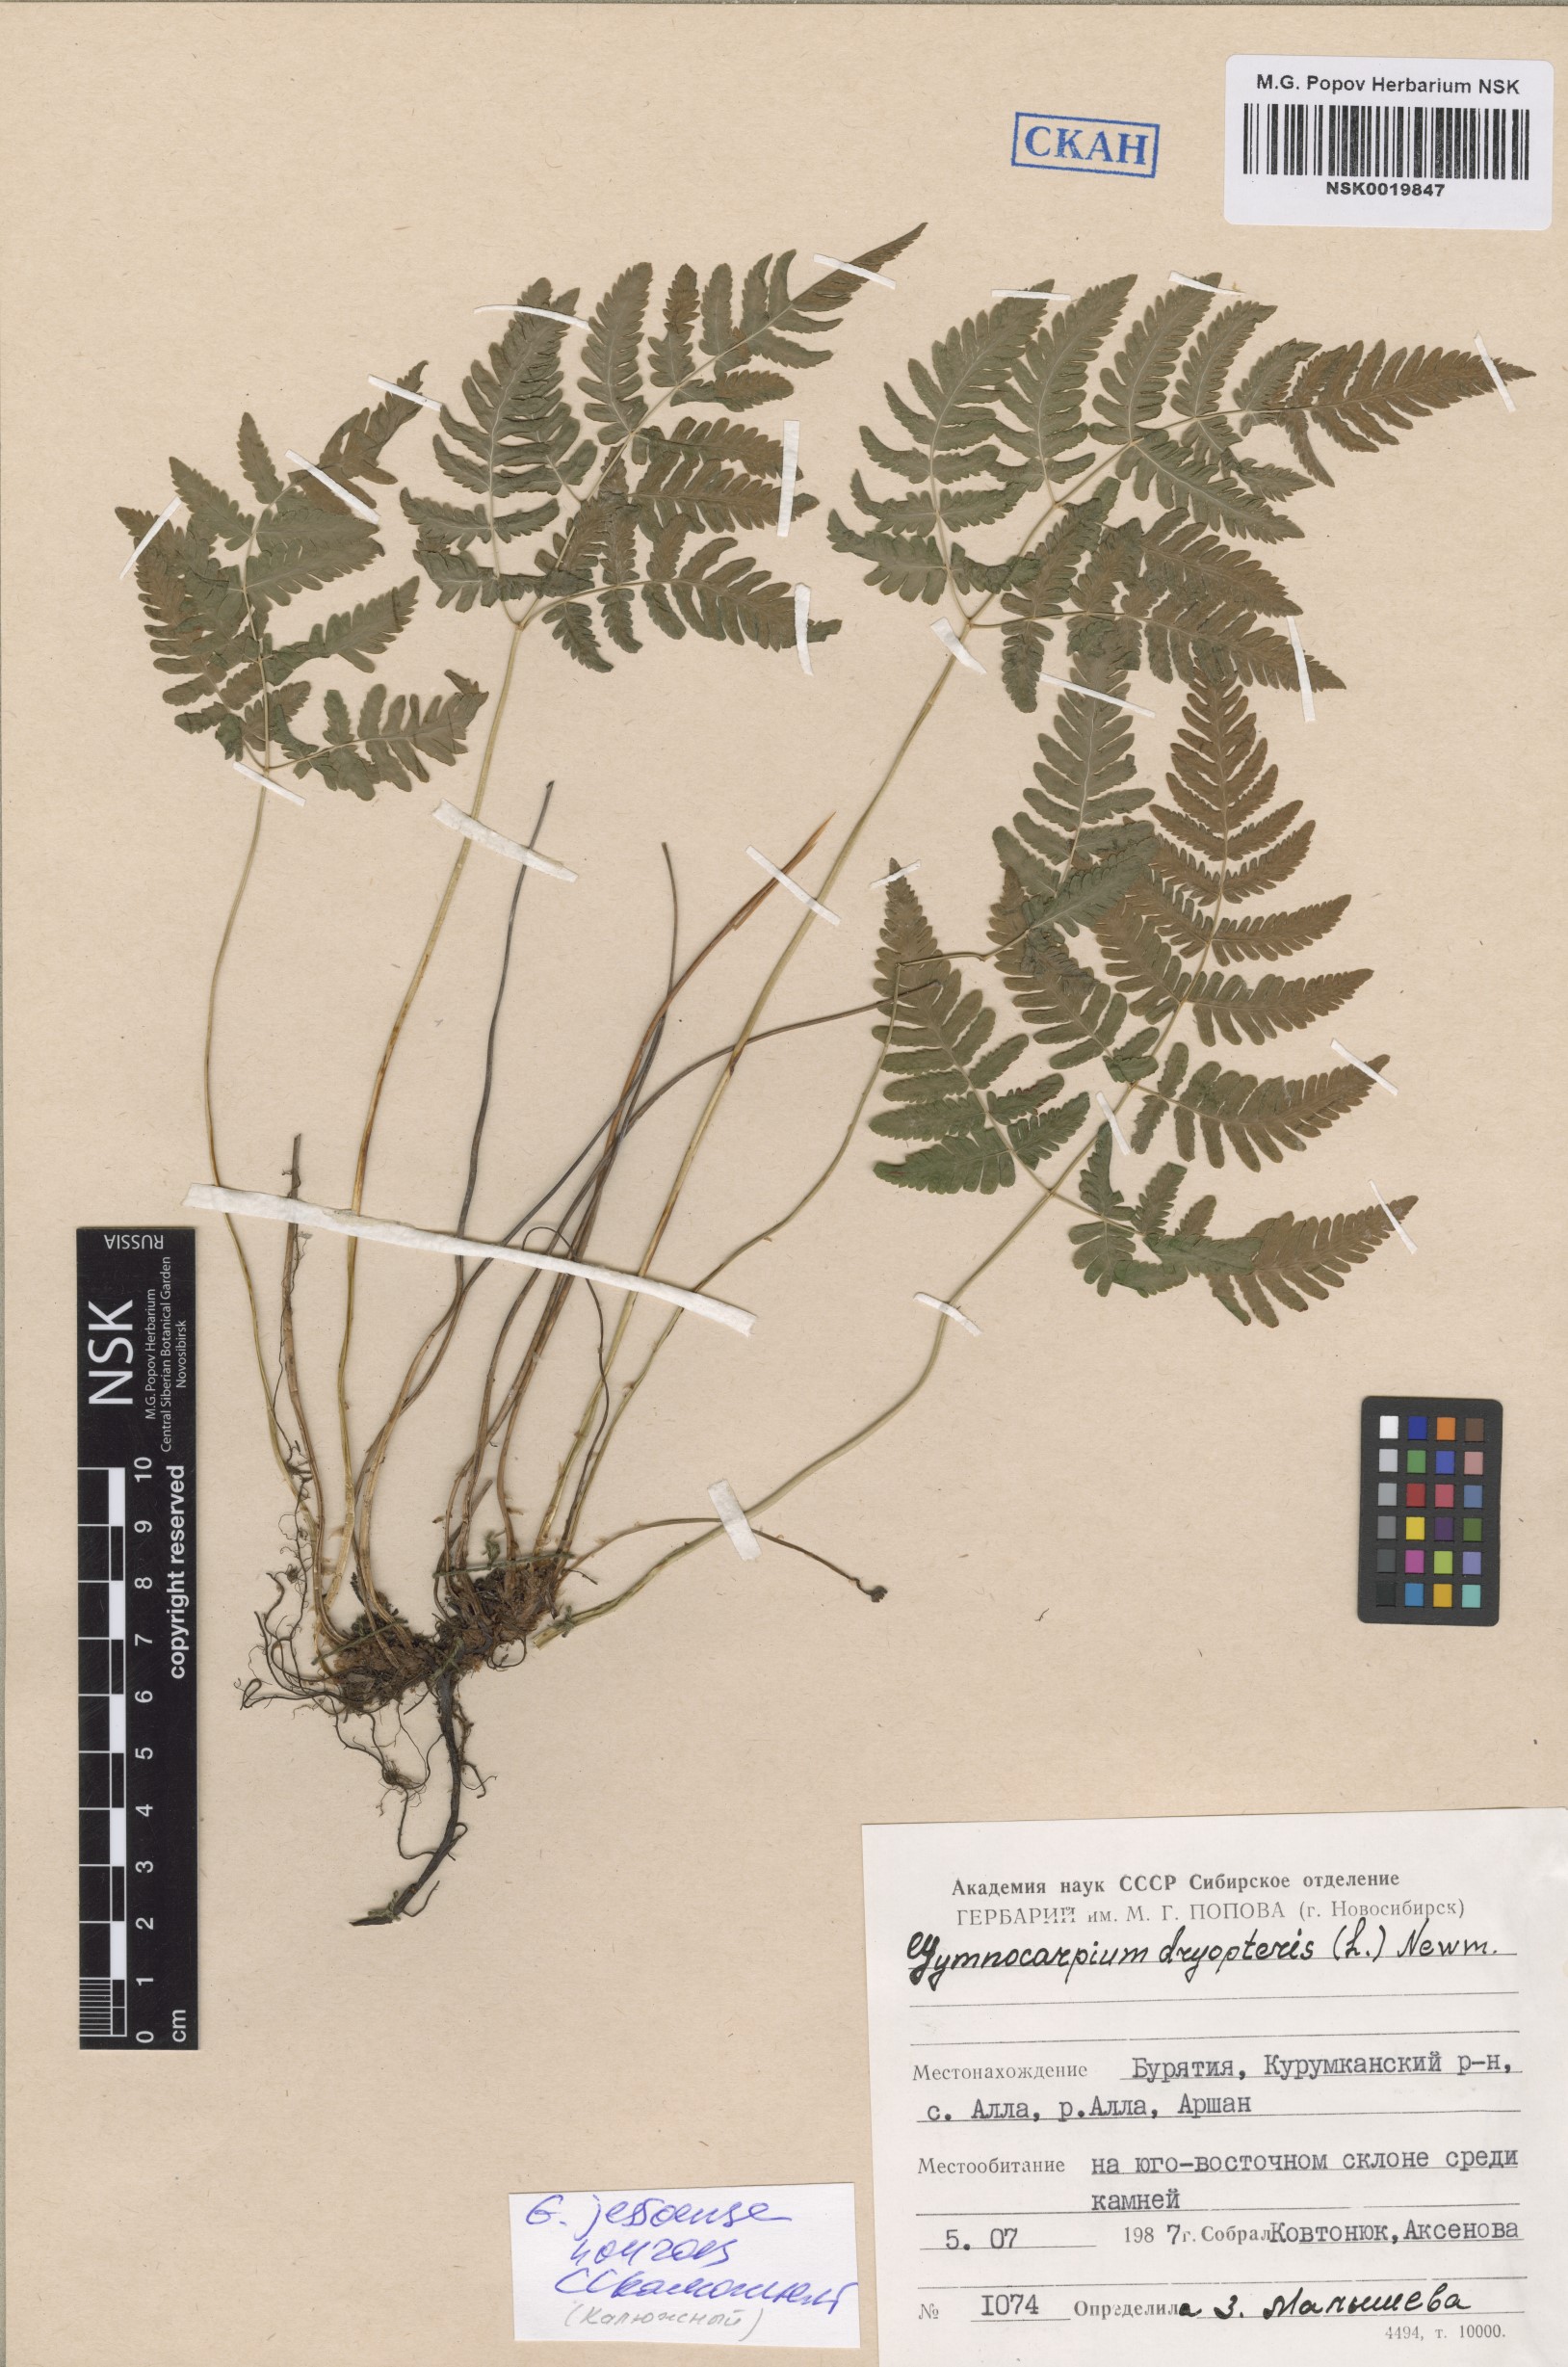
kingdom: Plantae
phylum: Tracheophyta
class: Polypodiopsida
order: Polypodiales
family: Cystopteridaceae
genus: Gymnocarpium
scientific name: Gymnocarpium jessoense
